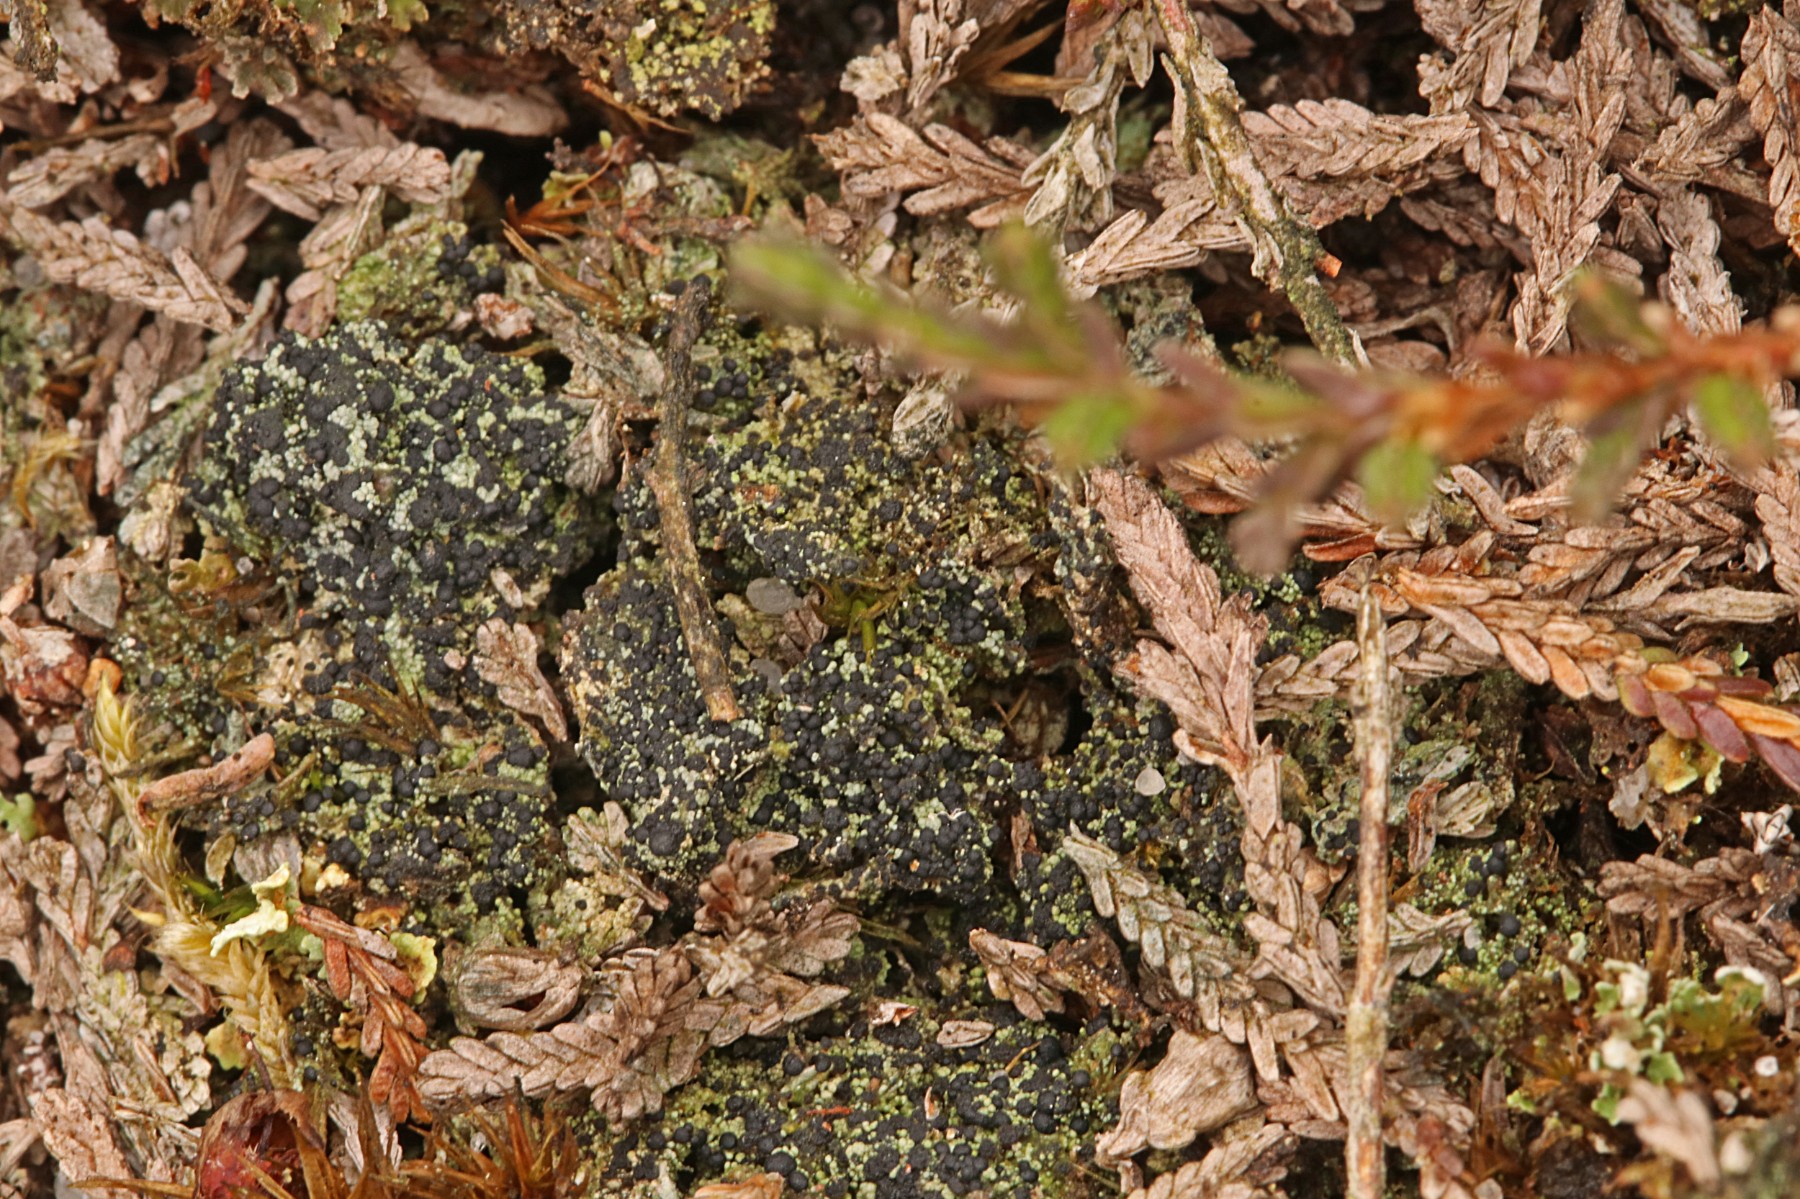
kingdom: Fungi
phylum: Ascomycota
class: Lecanoromycetes
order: Lecanorales
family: Byssolomataceae
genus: Micarea
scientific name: Micarea lignaria
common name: tørve-knaplav
